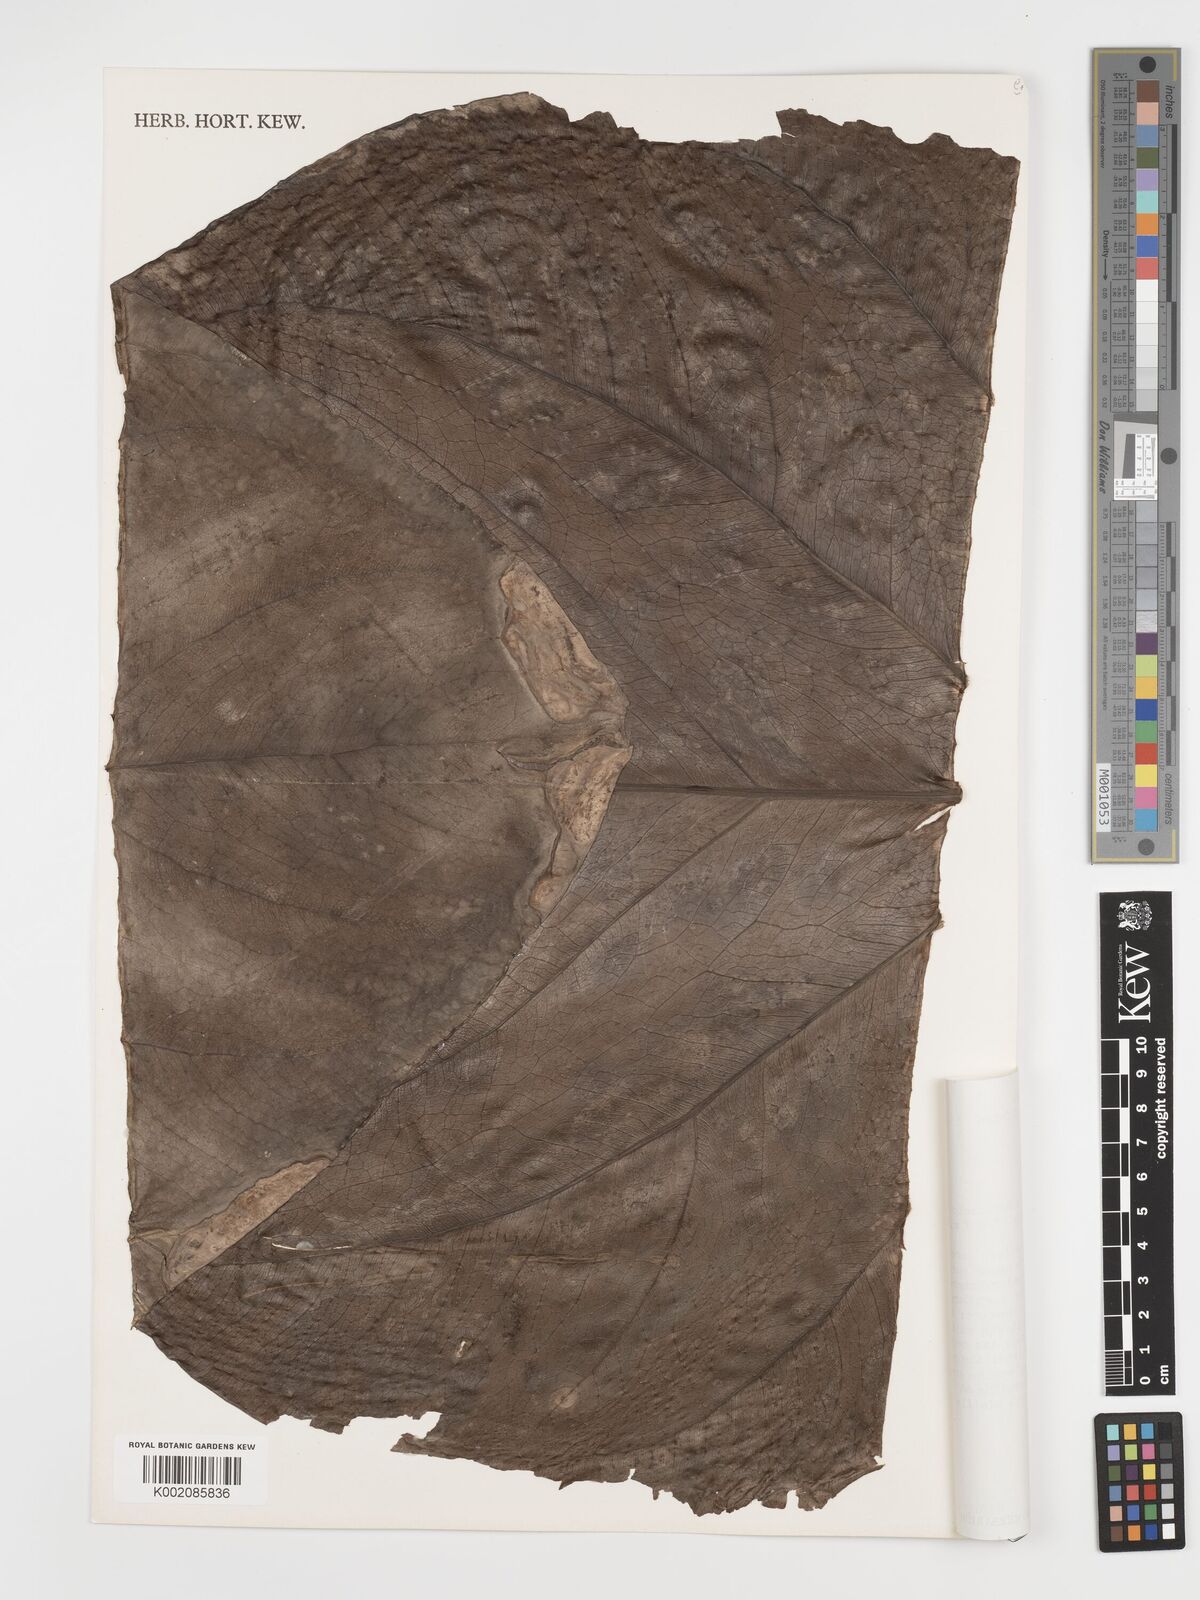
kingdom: Plantae
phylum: Tracheophyta
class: Liliopsida
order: Alismatales
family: Araceae
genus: Anthurium
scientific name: Anthurium colonense
